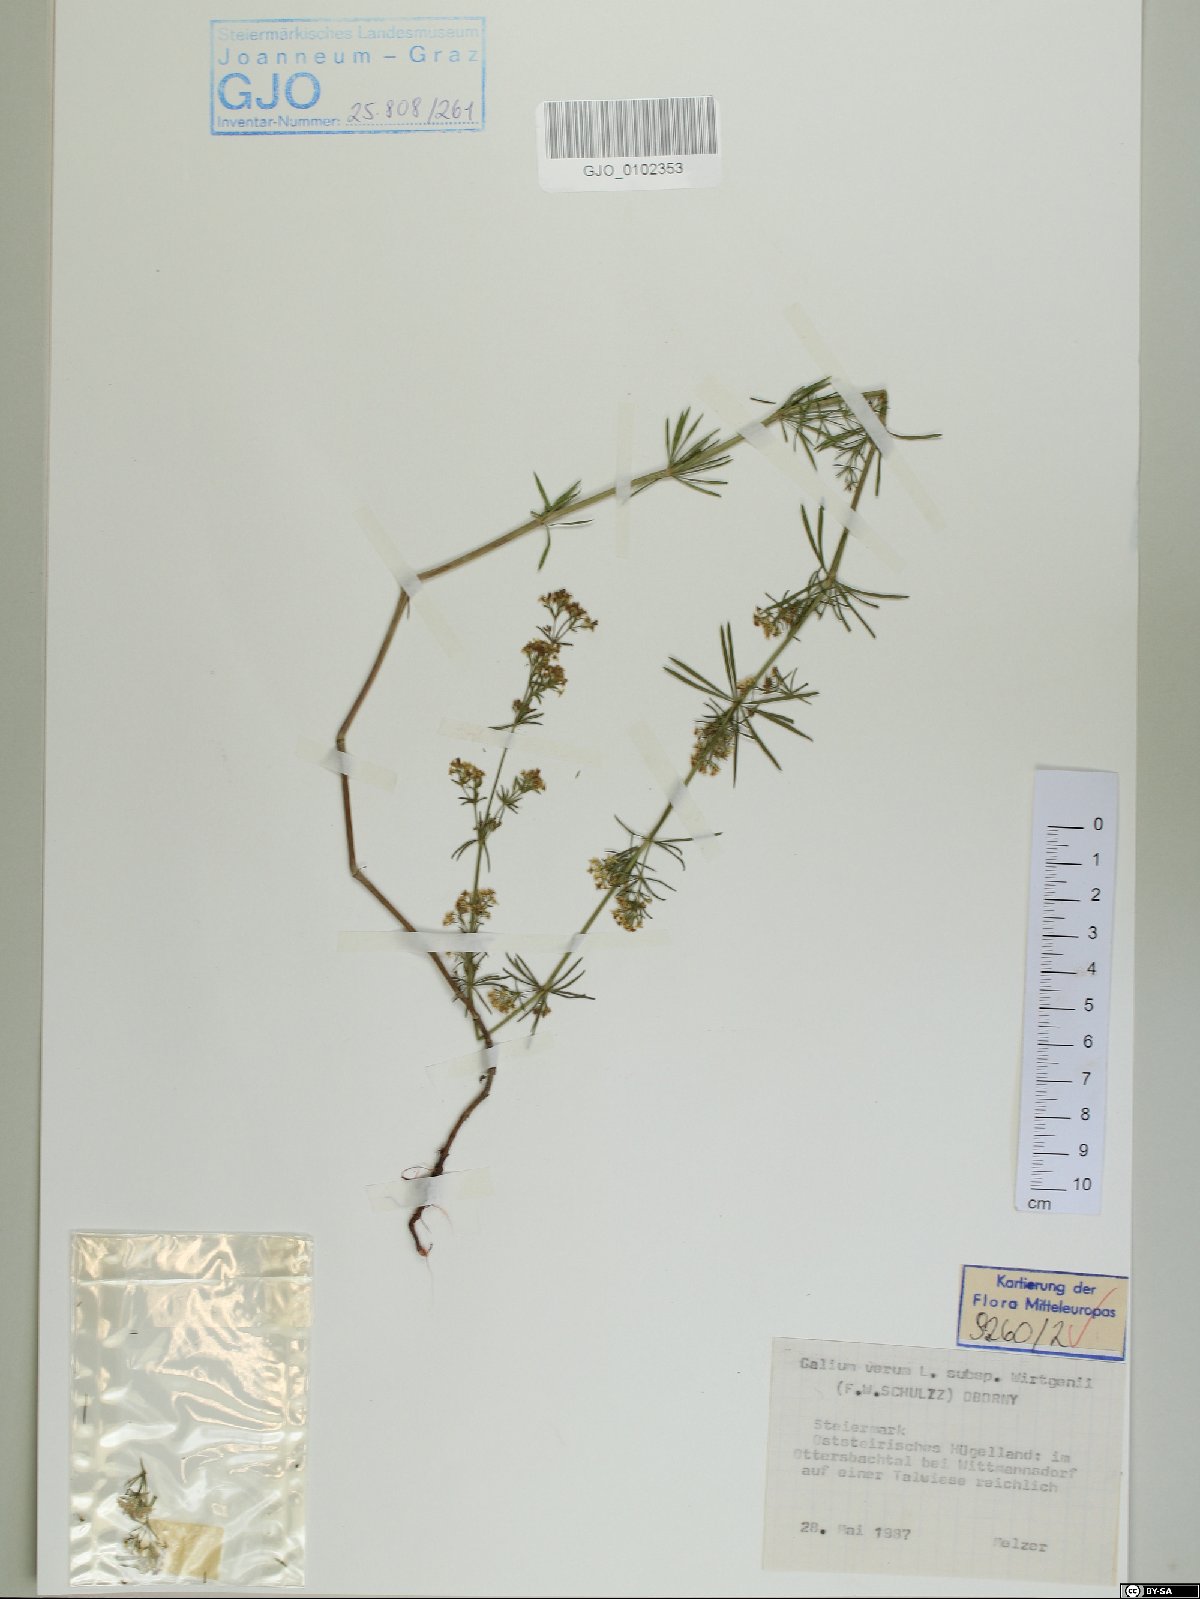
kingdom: Plantae
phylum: Tracheophyta
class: Magnoliopsida
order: Gentianales
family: Rubiaceae
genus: Galium
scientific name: Galium verum
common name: Lady's bedstraw
